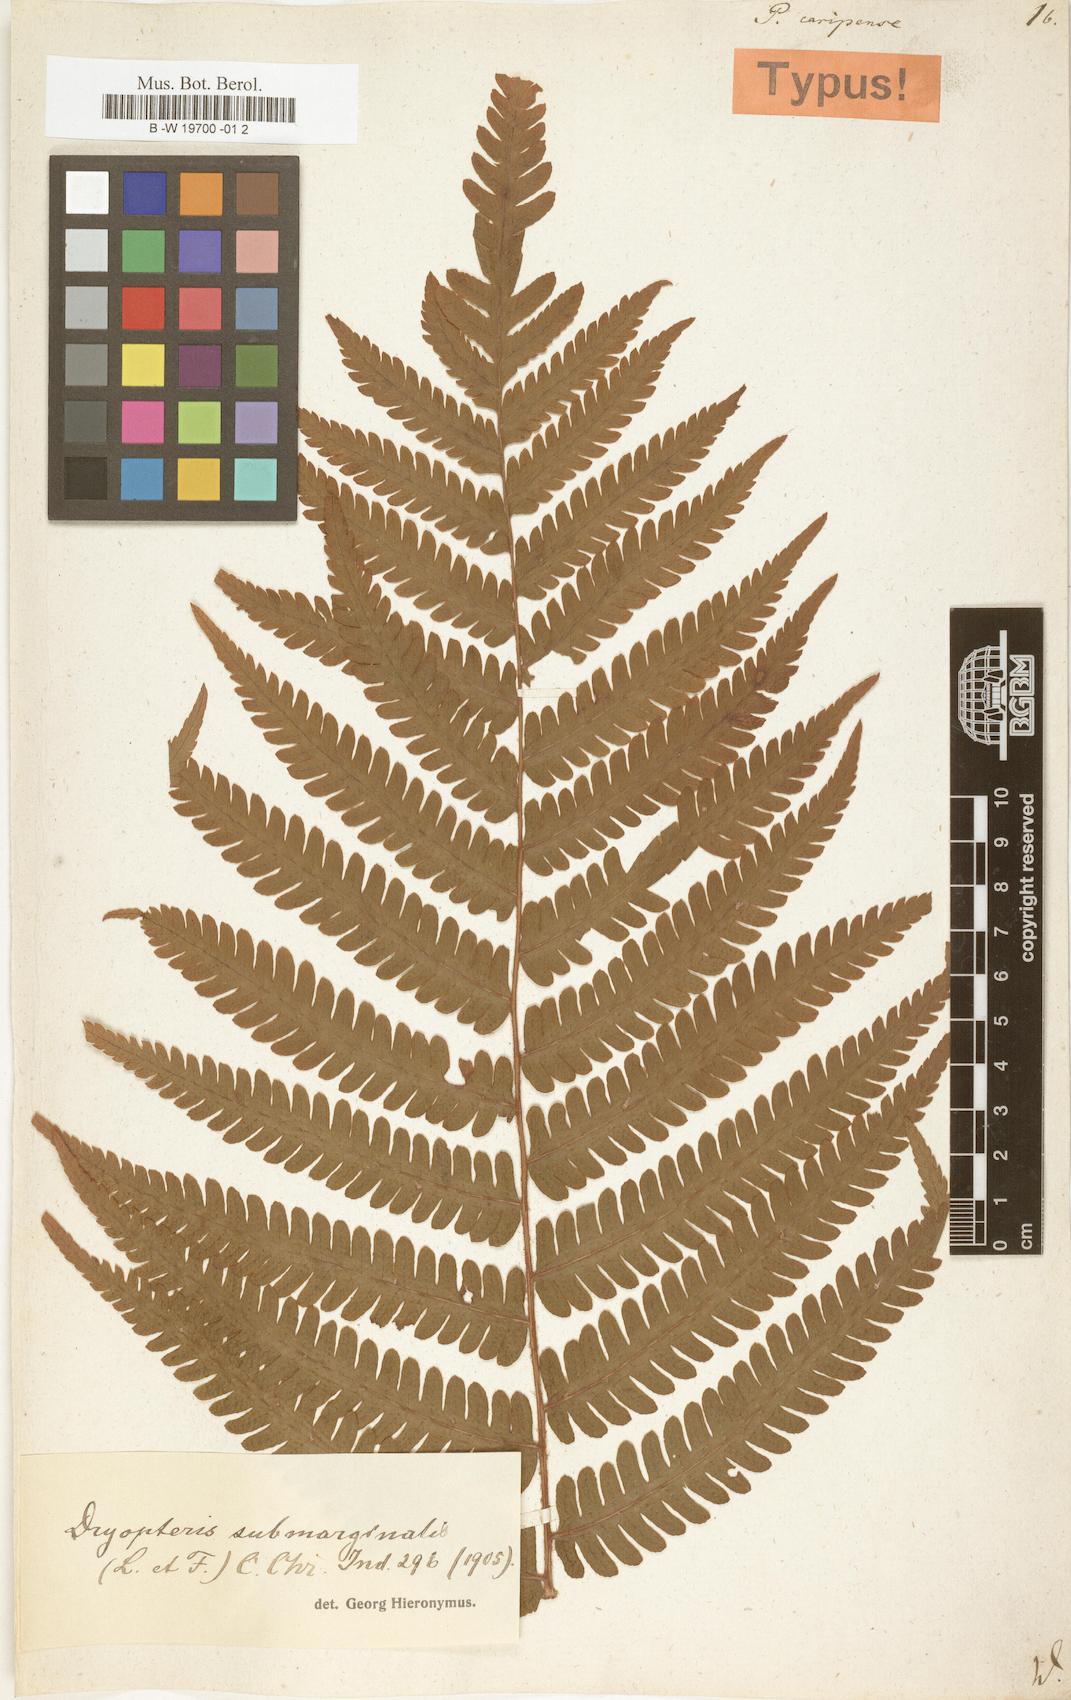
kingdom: Plantae
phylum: Tracheophyta
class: Polypodiopsida
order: Polypodiales
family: Dryopteridaceae
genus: Ctenitis
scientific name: Ctenitis submarginalis
